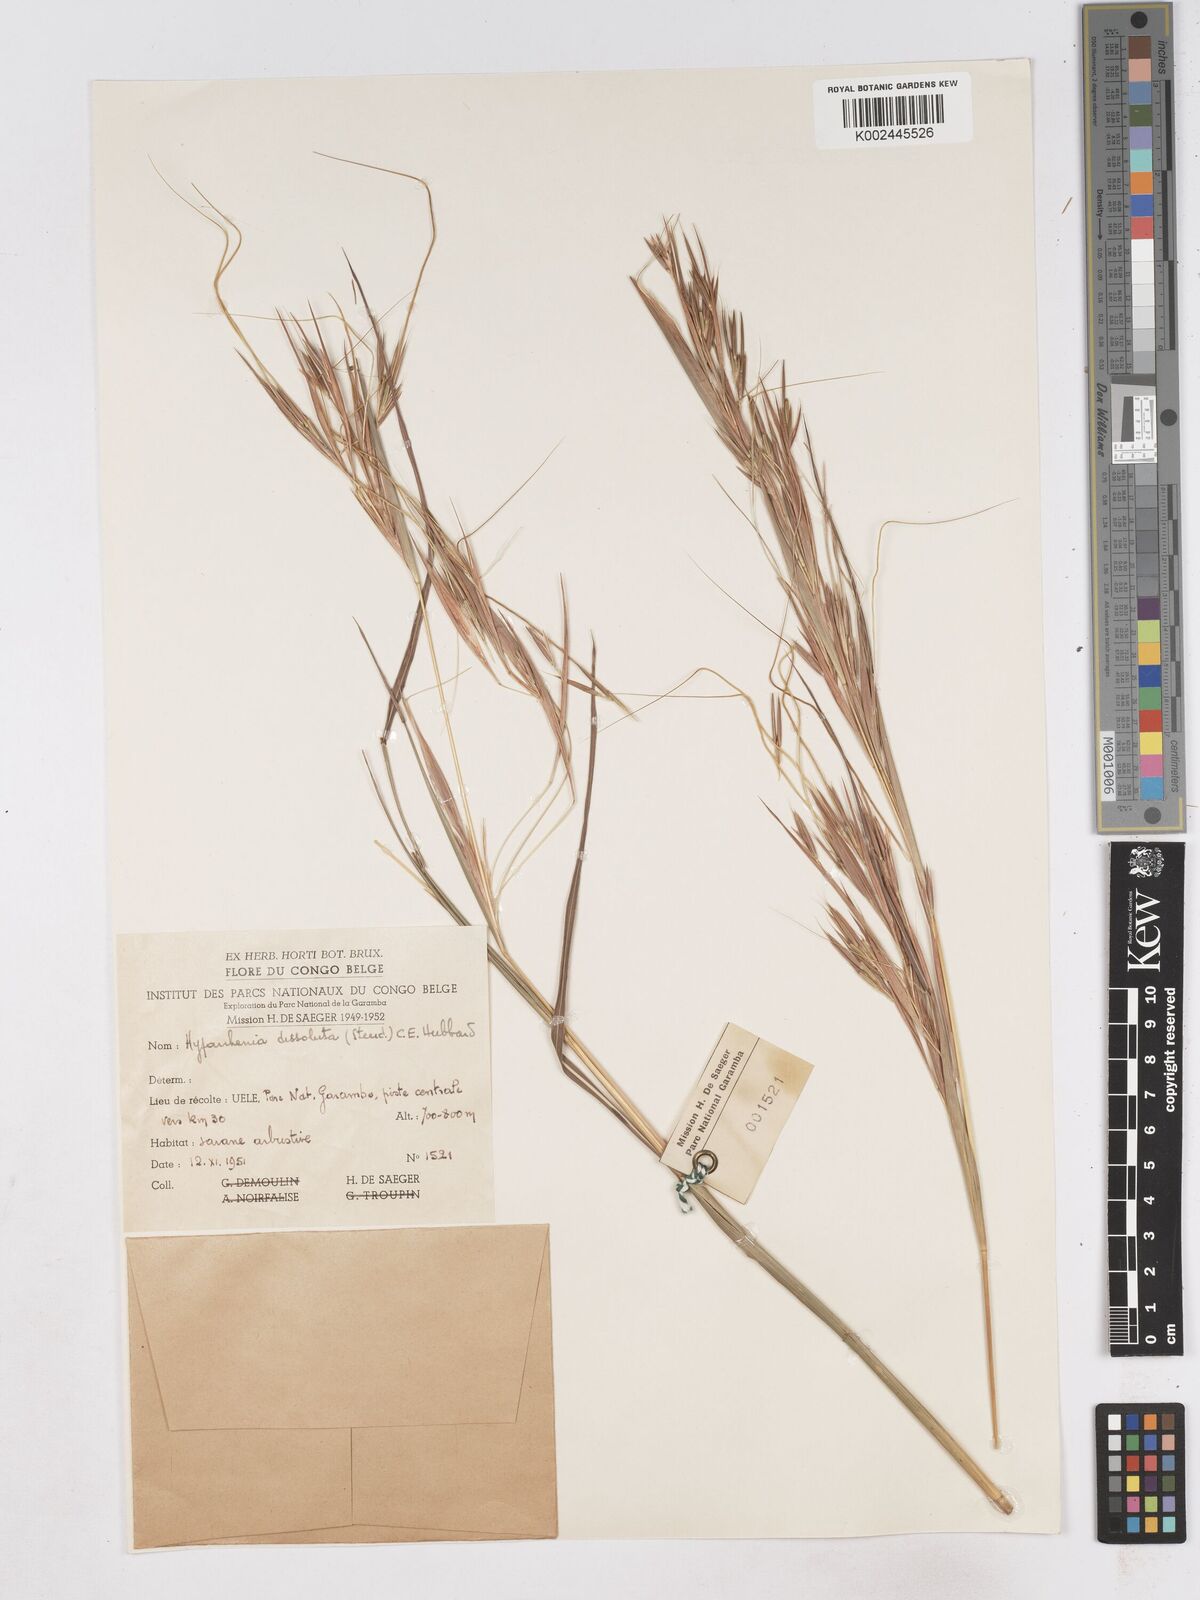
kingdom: Plantae
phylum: Tracheophyta
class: Liliopsida
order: Poales
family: Poaceae
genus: Hyperthelia
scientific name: Hyperthelia dissoluta
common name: Yellow thatching grass
